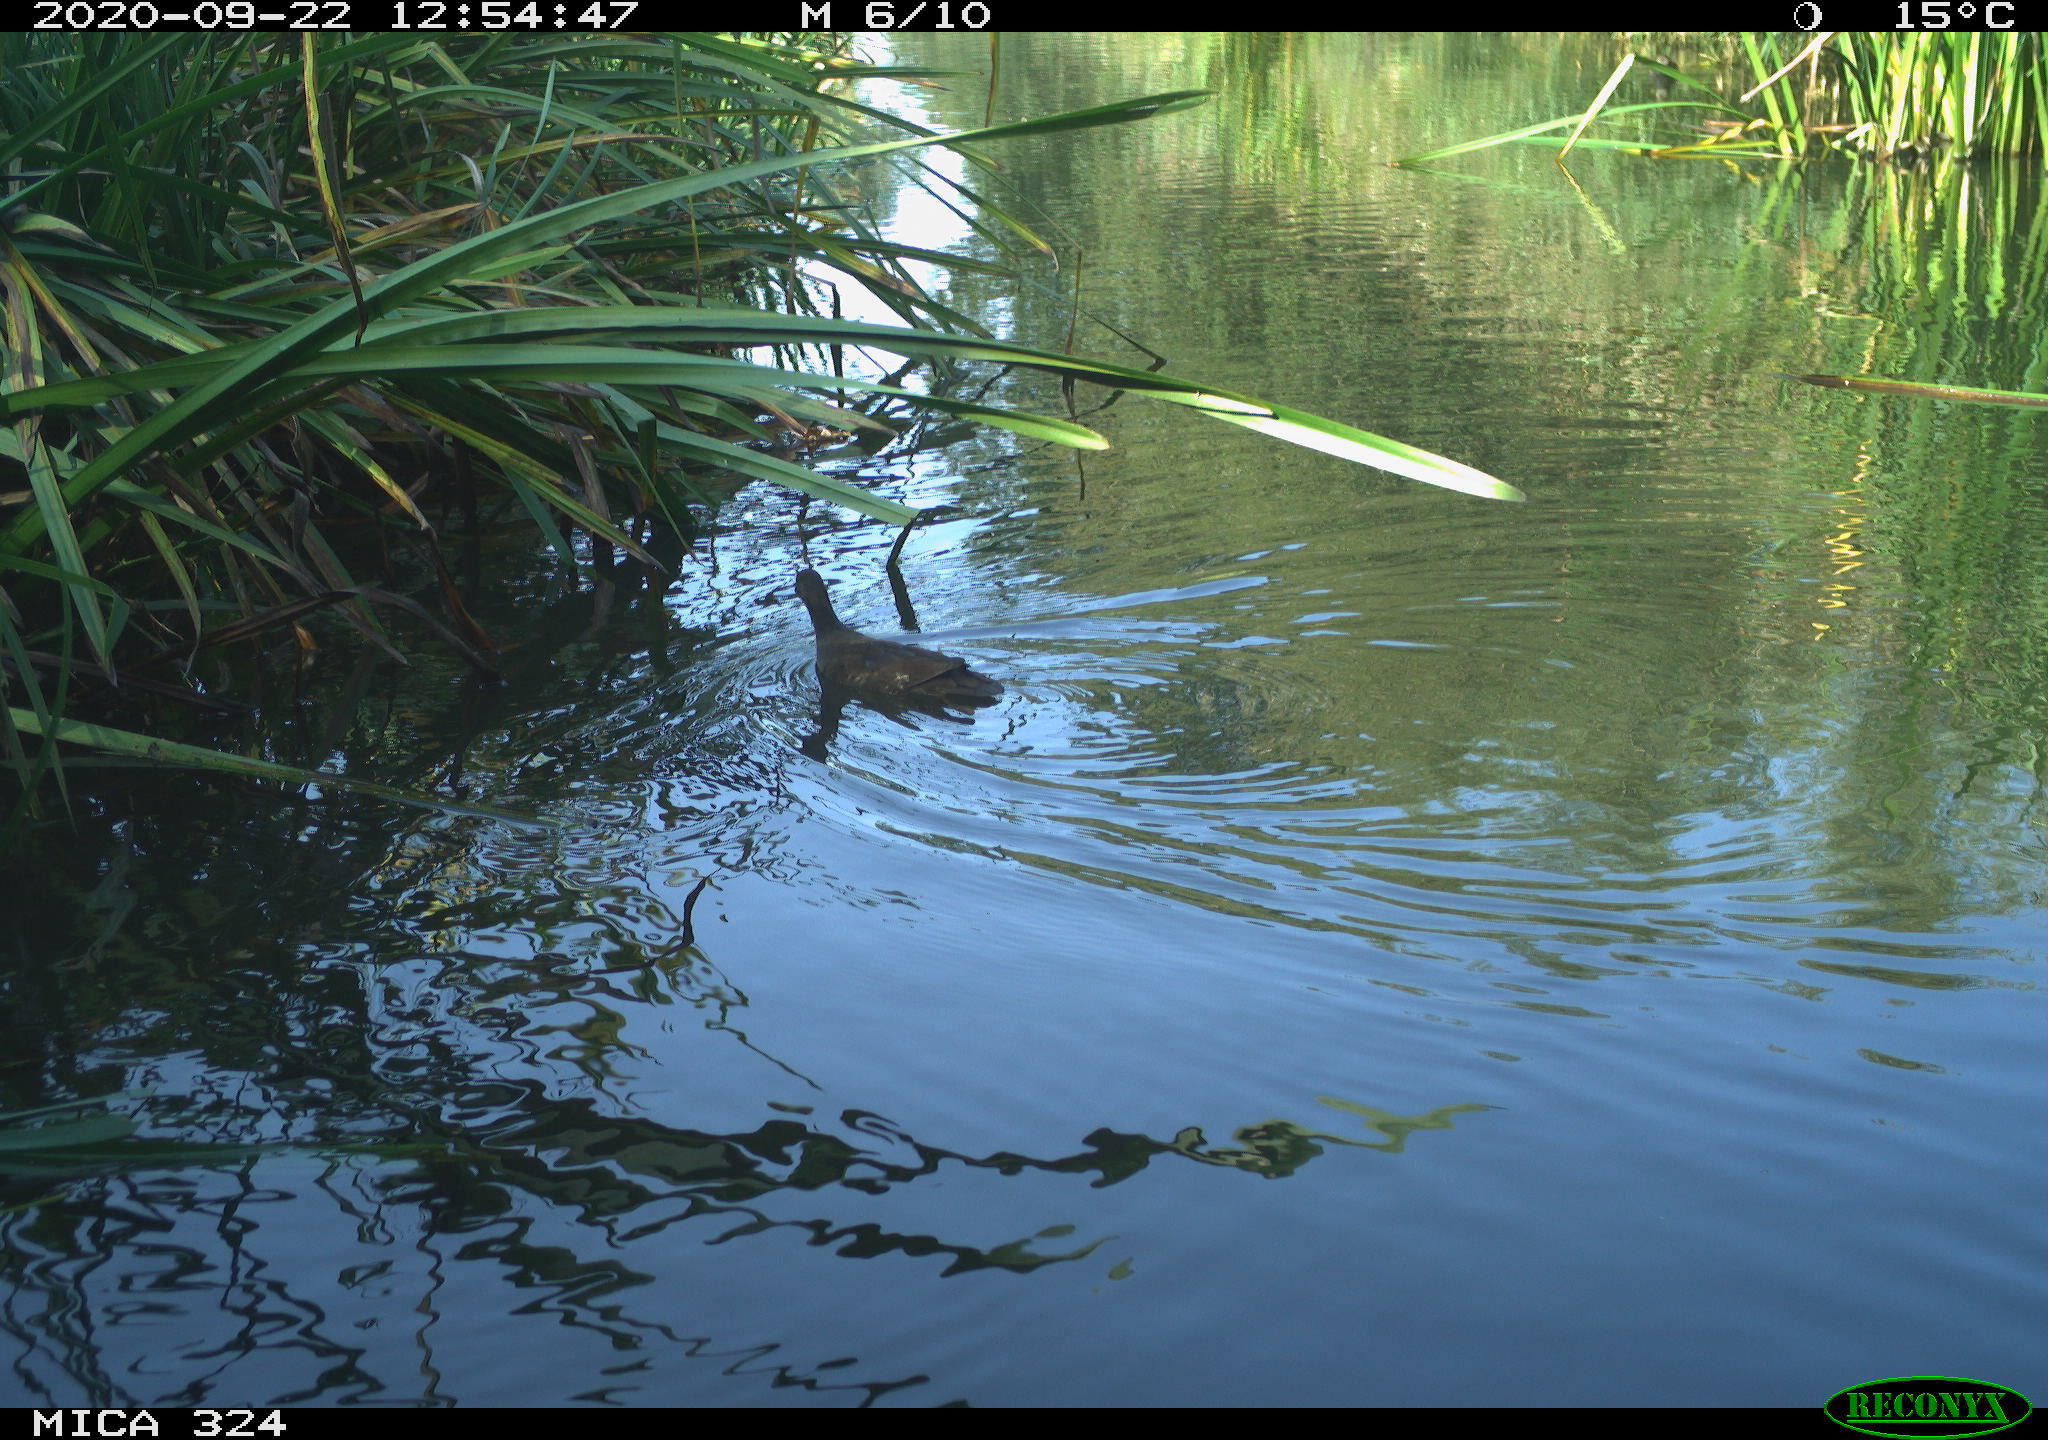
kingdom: Animalia
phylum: Chordata
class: Aves
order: Gruiformes
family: Rallidae
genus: Gallinula
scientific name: Gallinula chloropus
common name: Common moorhen
